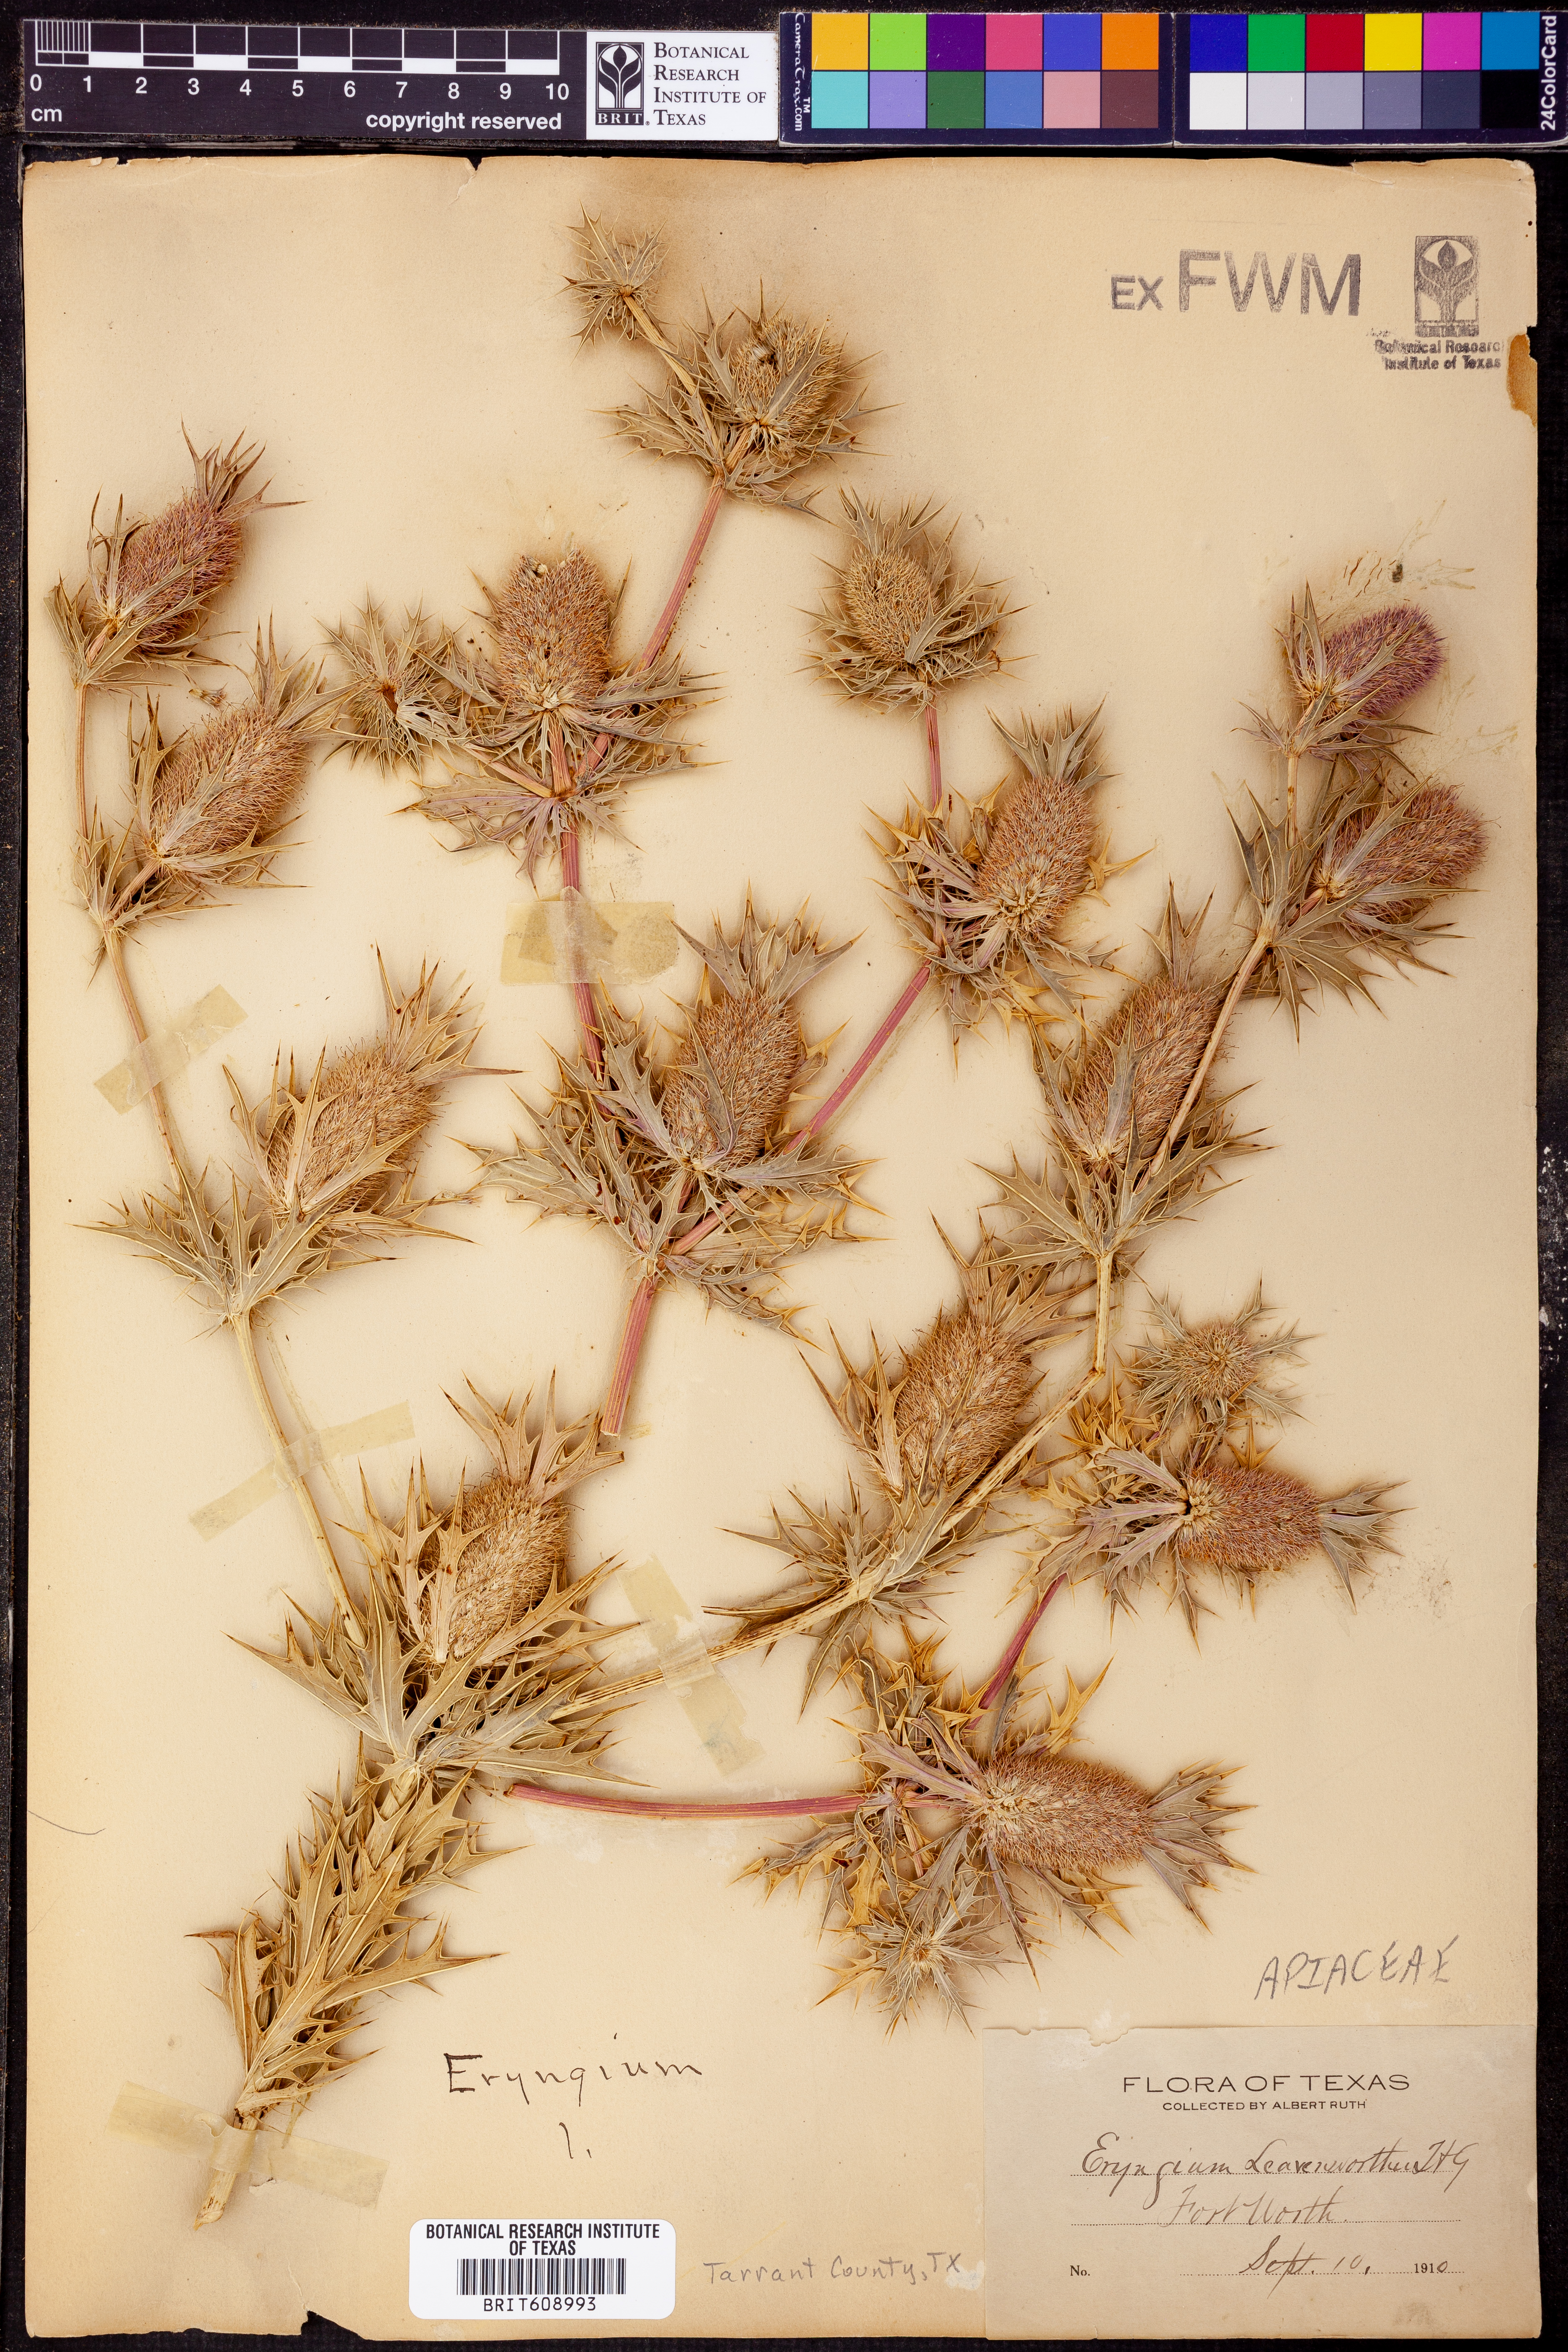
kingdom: Plantae
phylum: Tracheophyta
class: Magnoliopsida
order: Apiales
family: Apiaceae
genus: Eryngium
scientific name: Eryngium leavenworthii
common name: Leavenworth's eryngo
